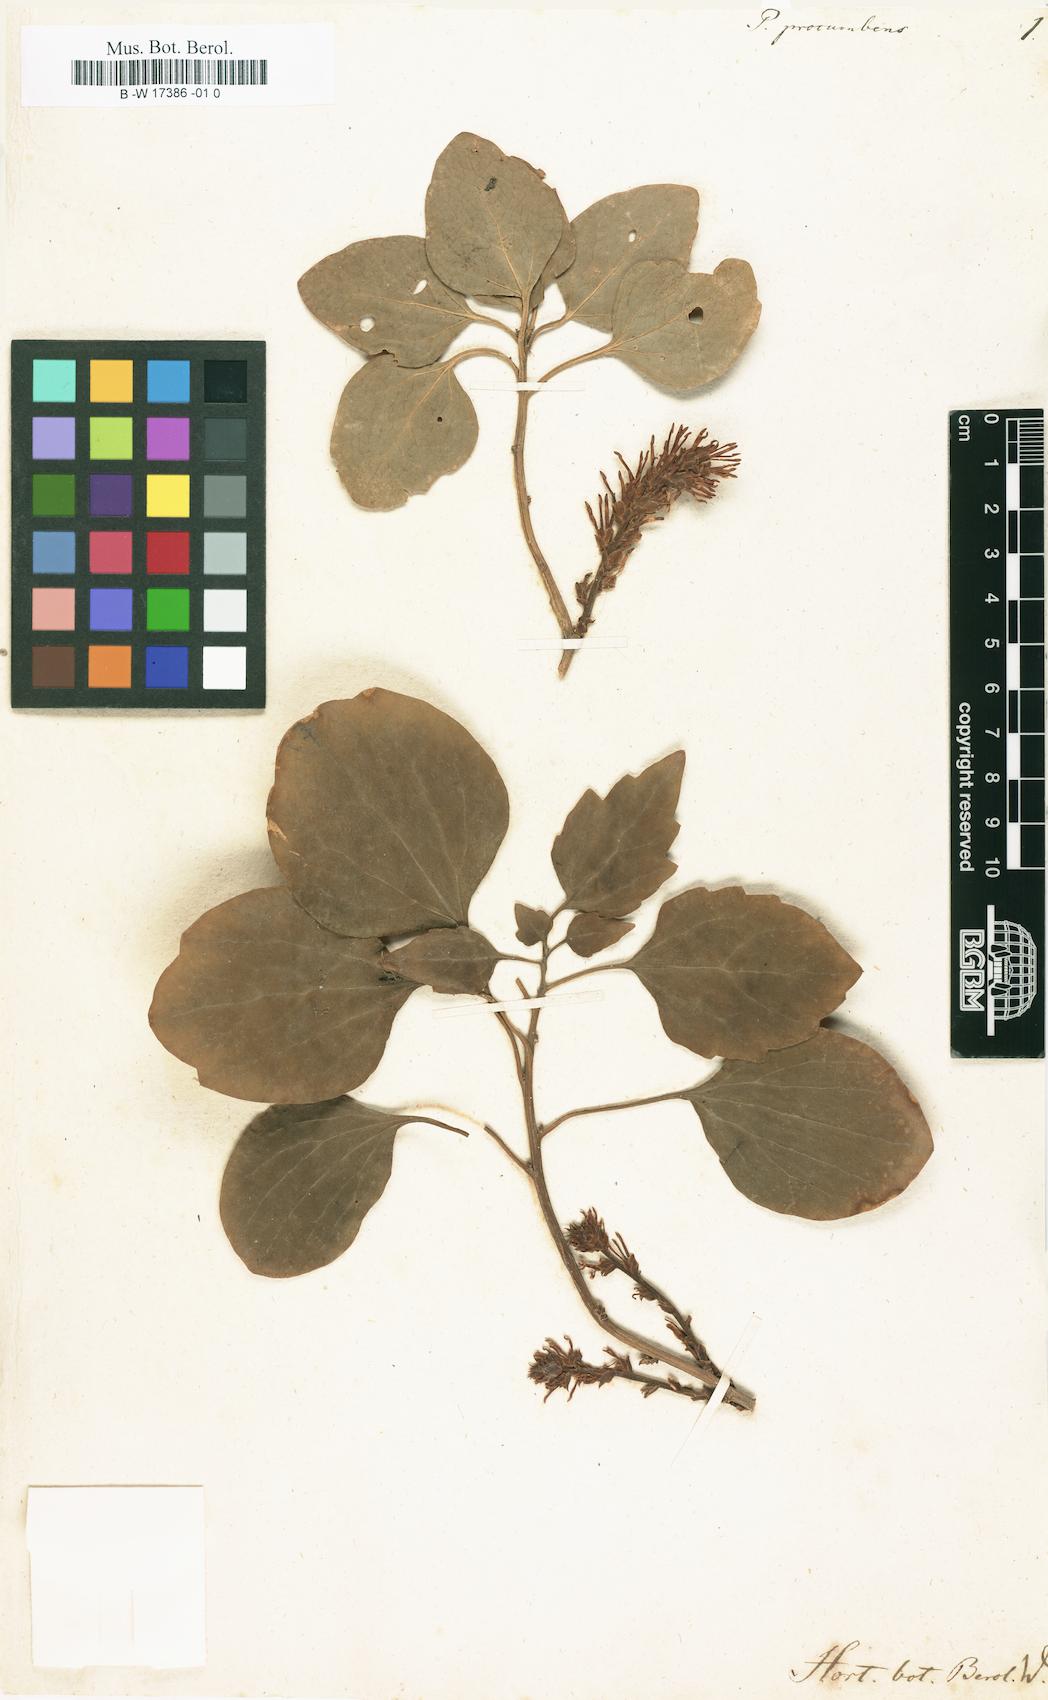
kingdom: Plantae
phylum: Tracheophyta
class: Magnoliopsida
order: Buxales
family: Buxaceae
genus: Pachysandra
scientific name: Pachysandra procumbens
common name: Mountain-spurge
